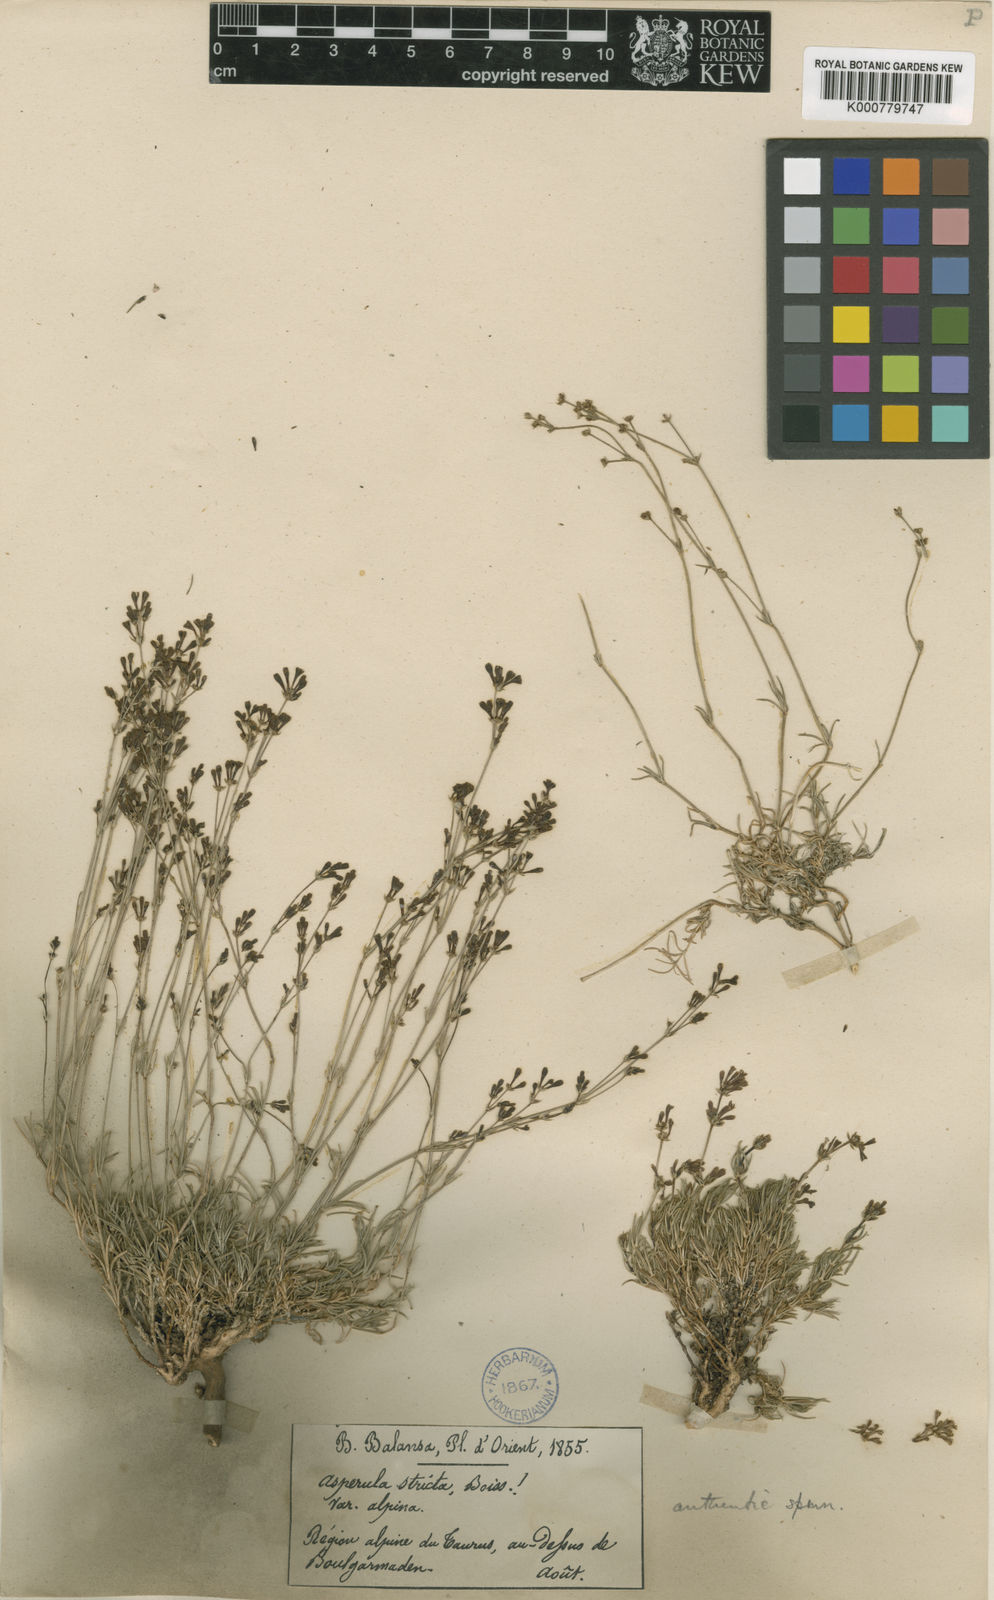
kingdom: Plantae
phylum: Tracheophyta
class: Magnoliopsida
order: Gentianales
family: Rubiaceae
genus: Cynanchica
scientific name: Cynanchica capitellata
